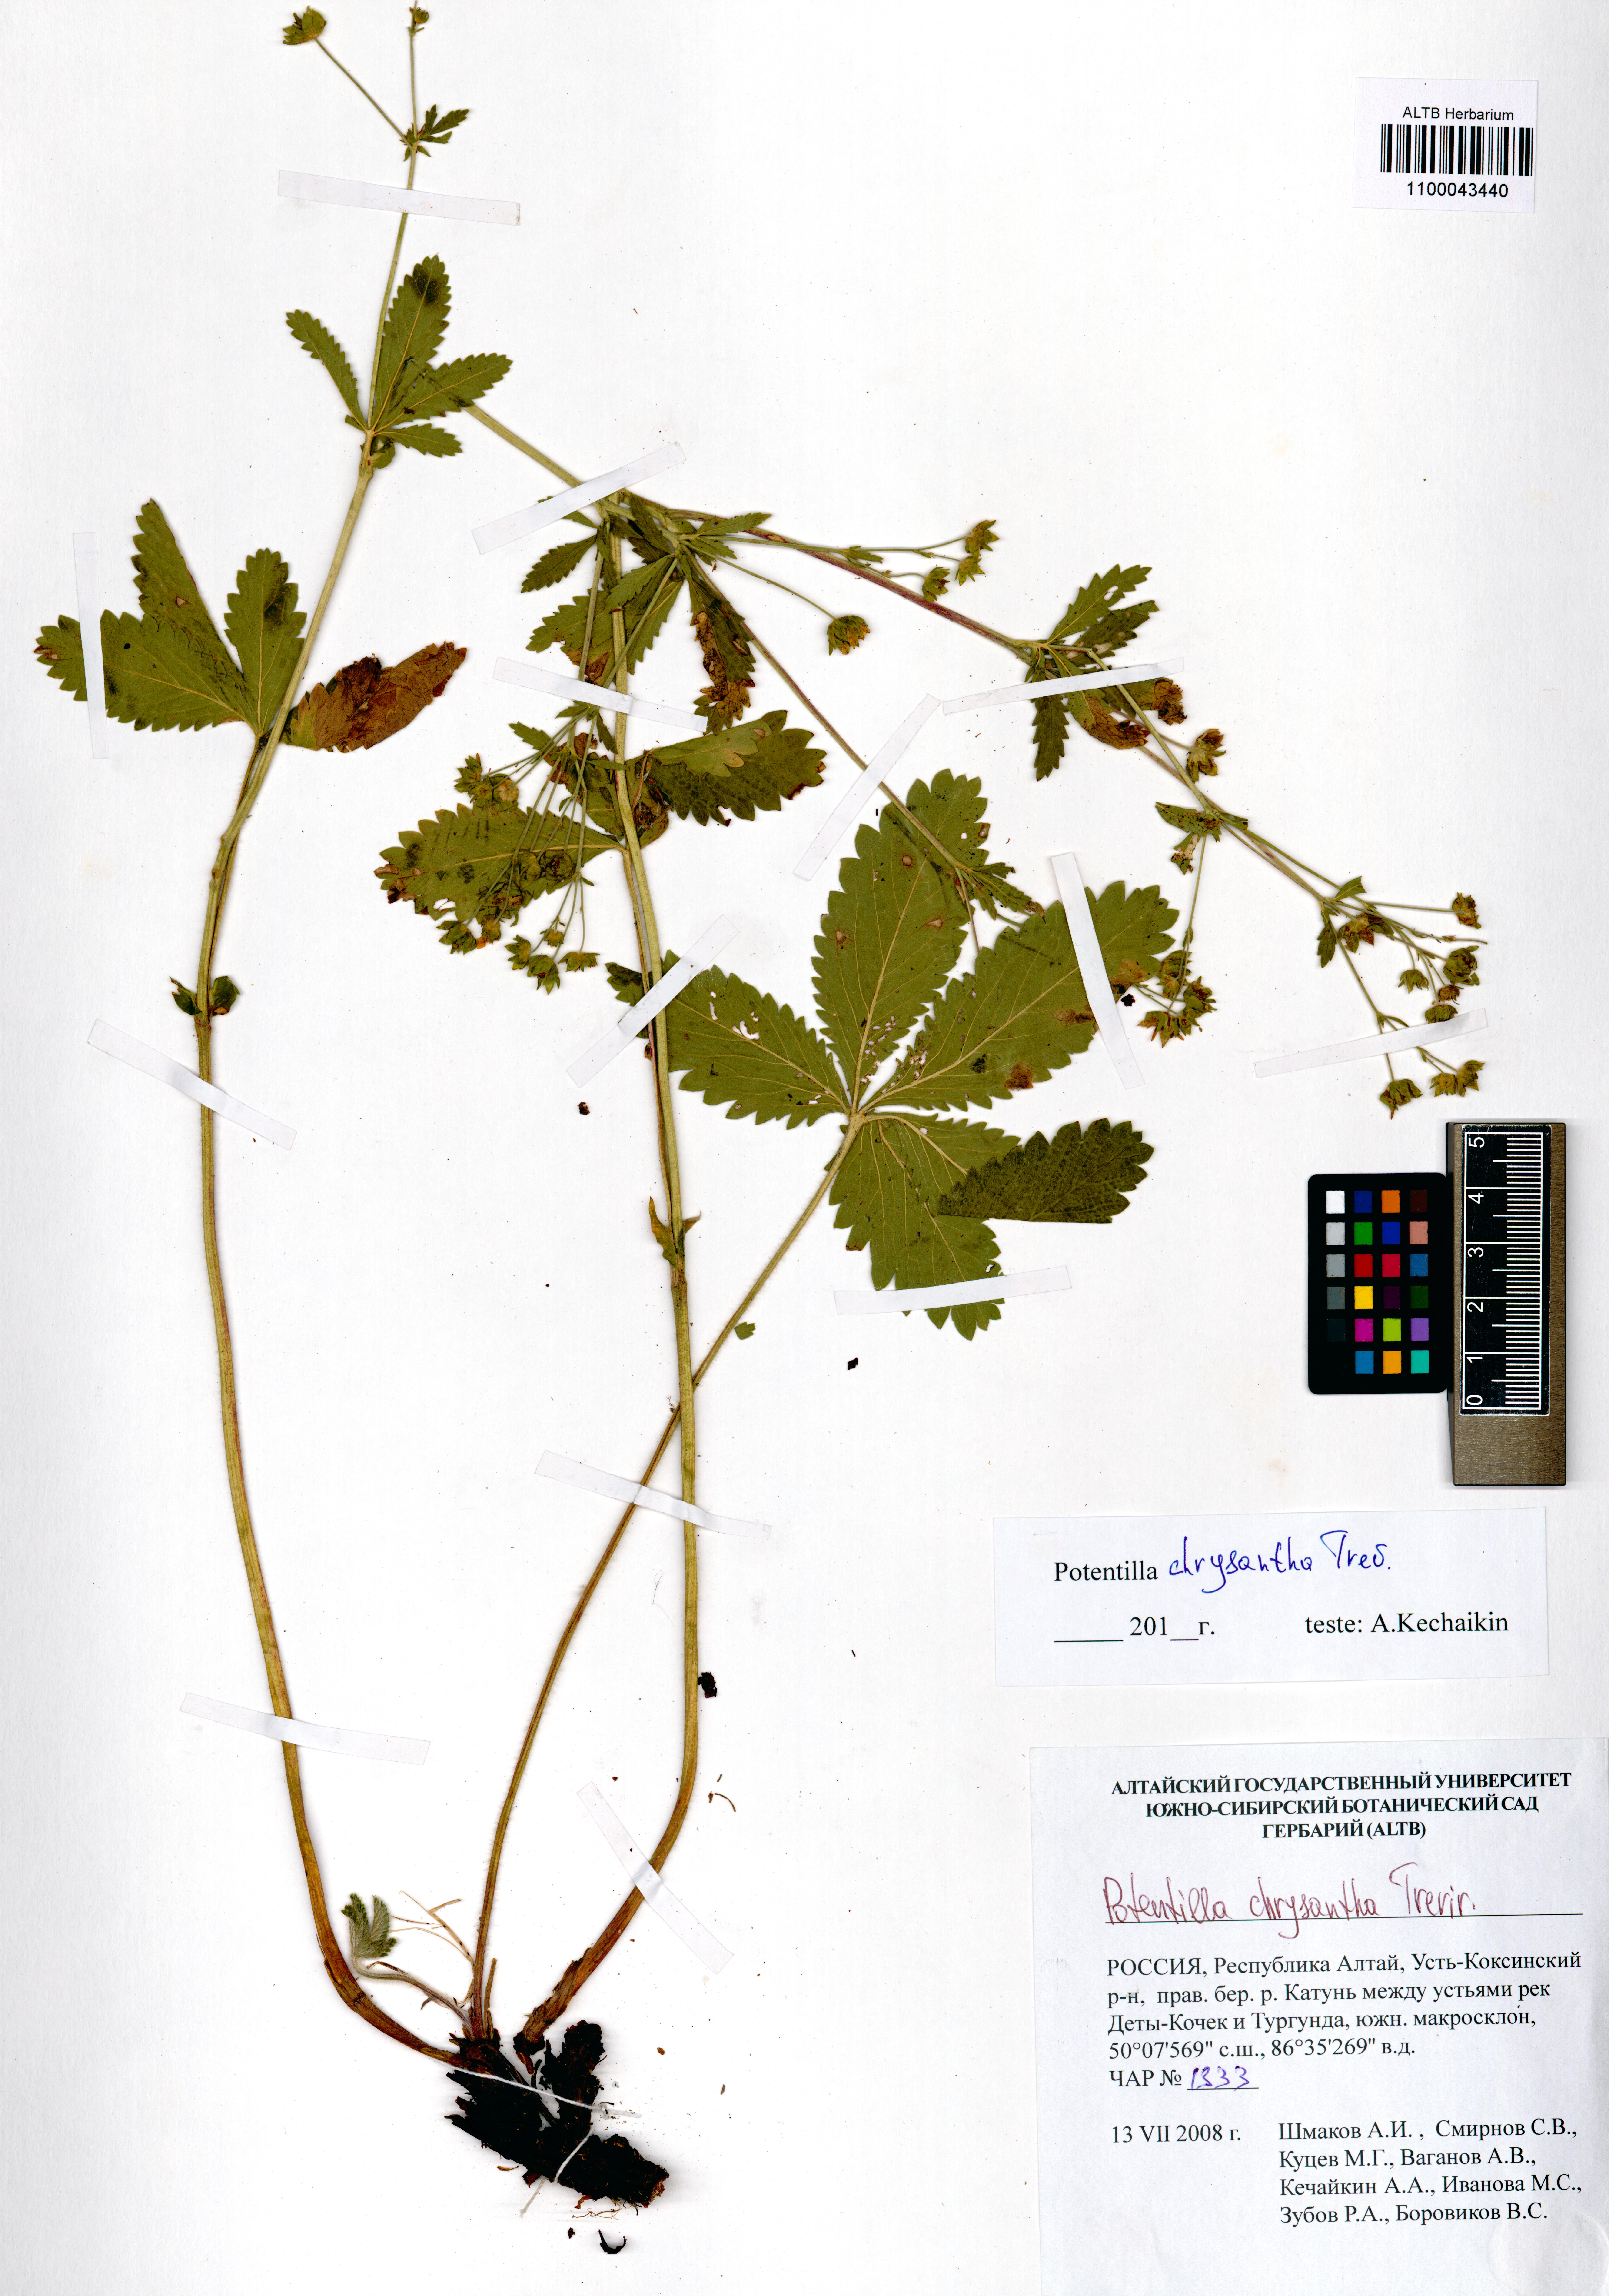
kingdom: Plantae
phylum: Tracheophyta
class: Magnoliopsida
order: Rosales
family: Rosaceae
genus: Potentilla
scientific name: Potentilla chrysantha
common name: Thuringian cinquefoil
